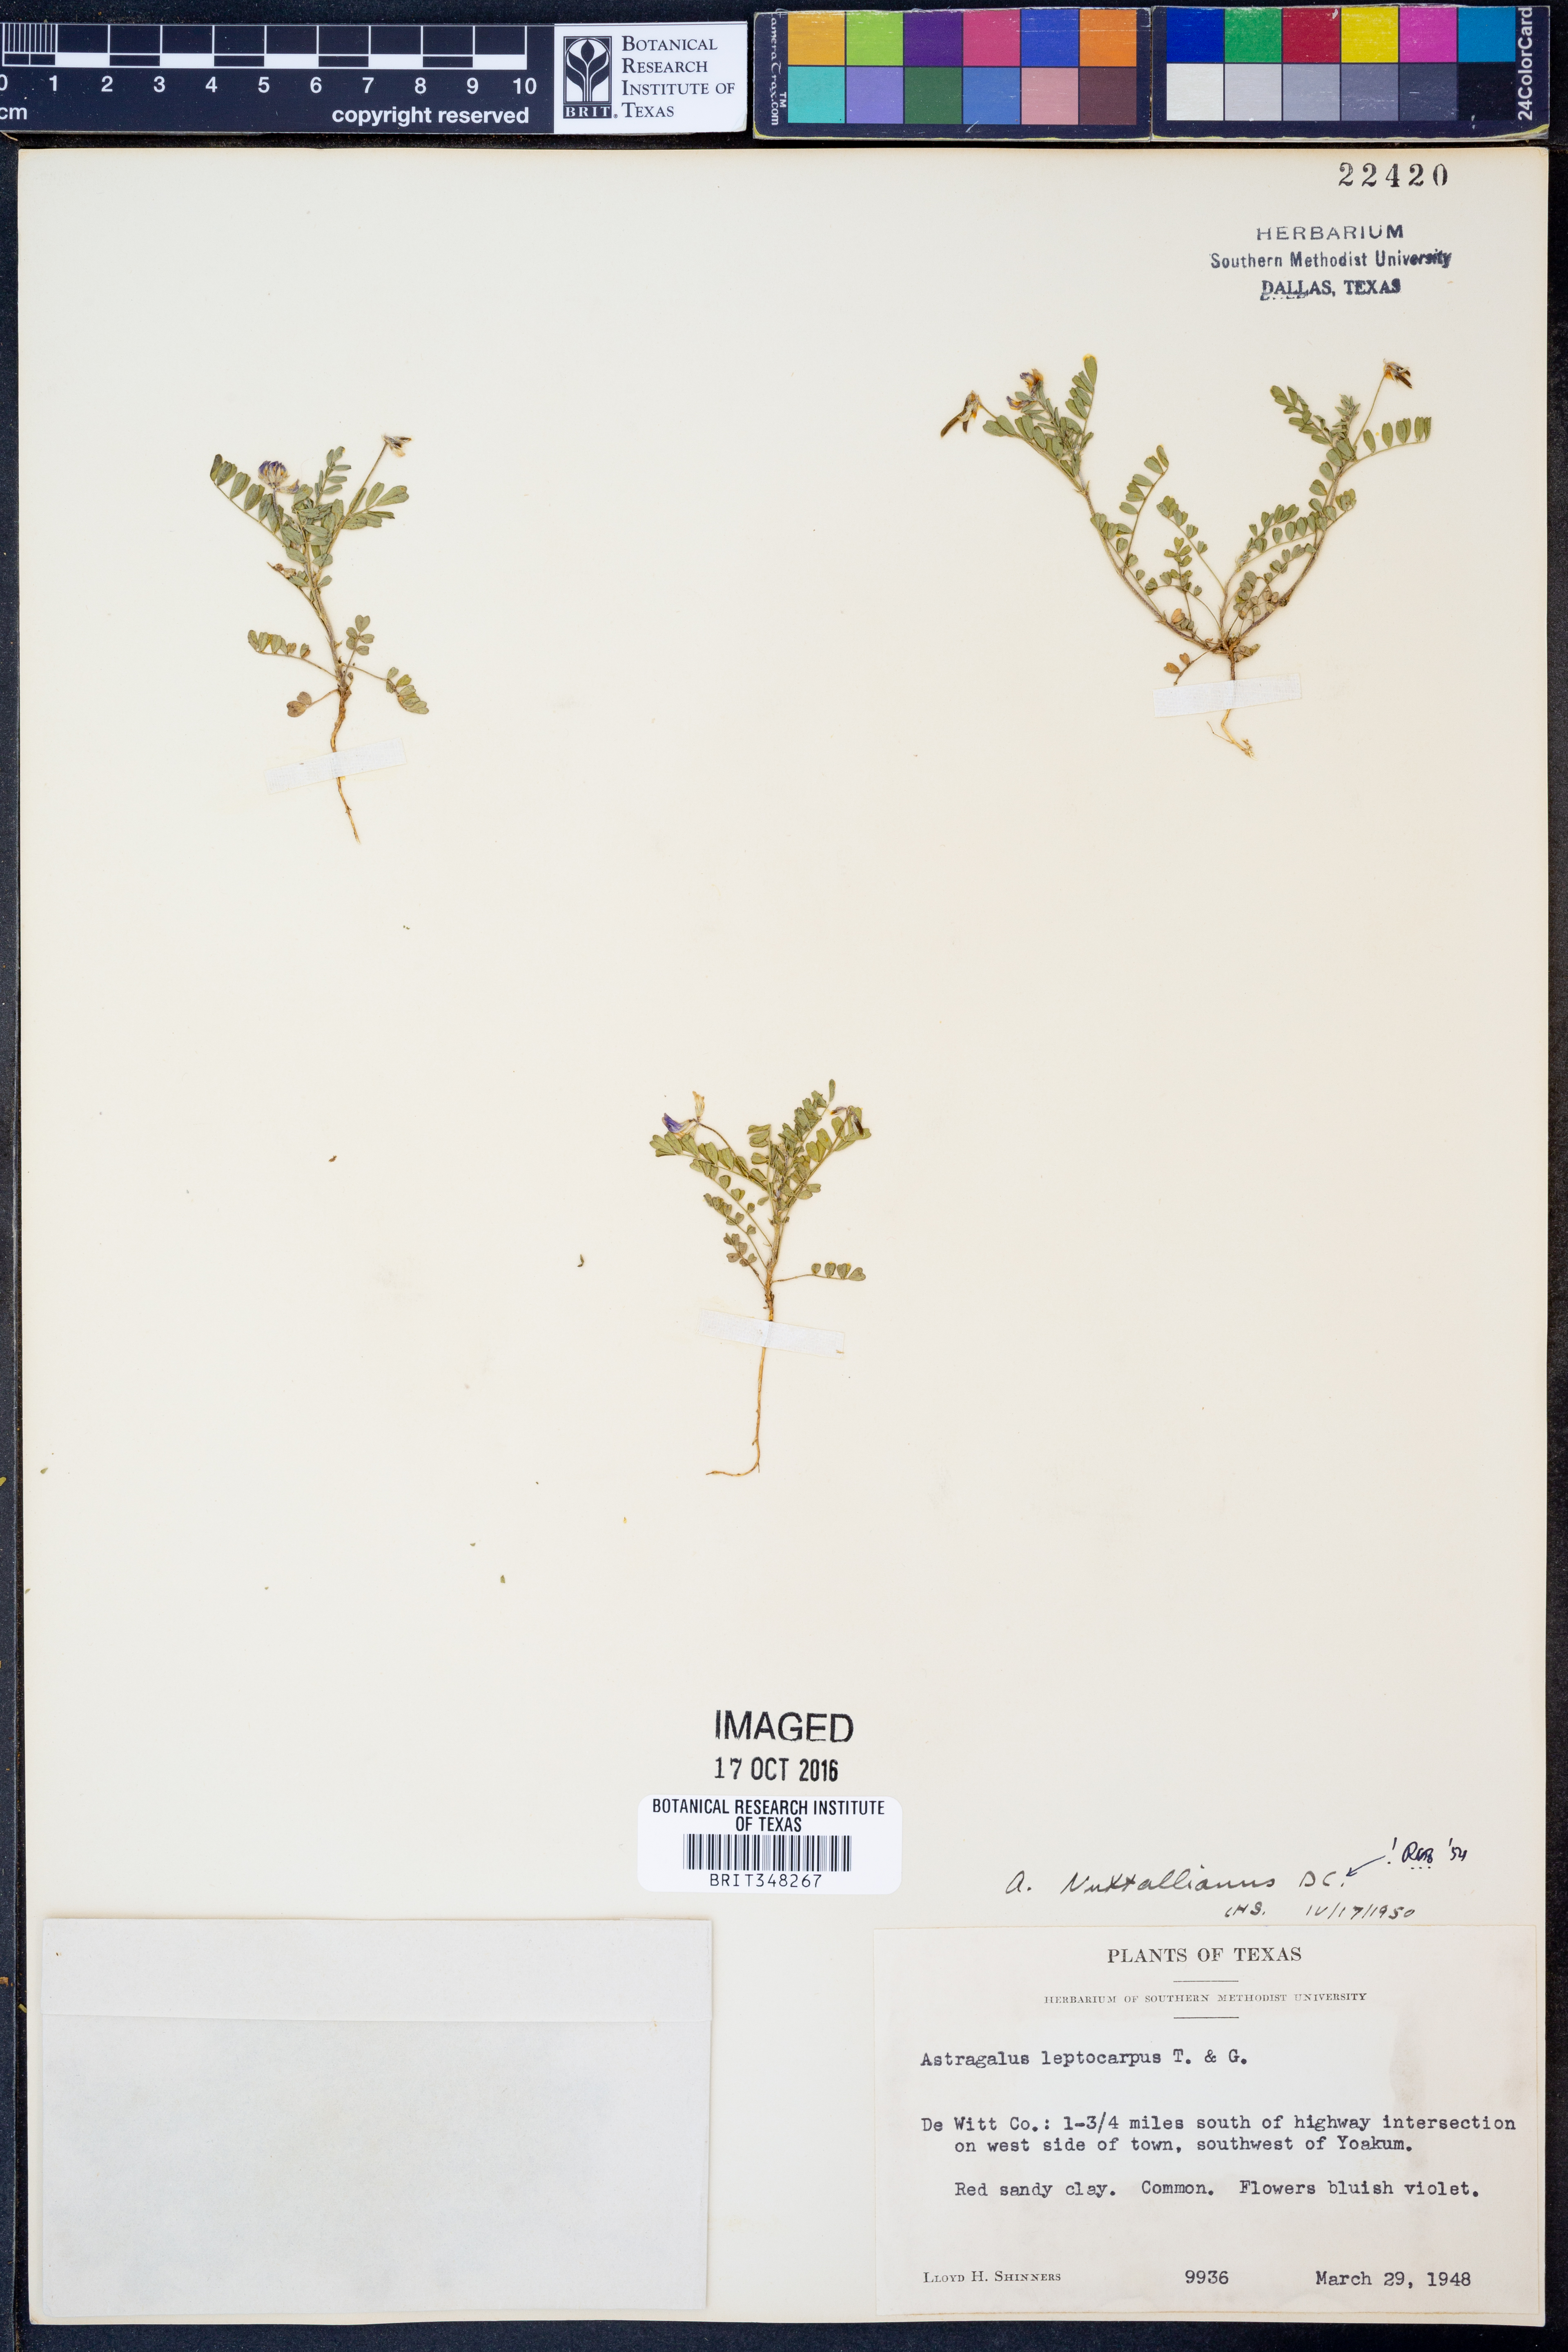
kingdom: Plantae
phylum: Tracheophyta
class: Magnoliopsida
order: Fabales
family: Fabaceae
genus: Astragalus
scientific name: Astragalus nuttallianus
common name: Smallflowered milkvetch
